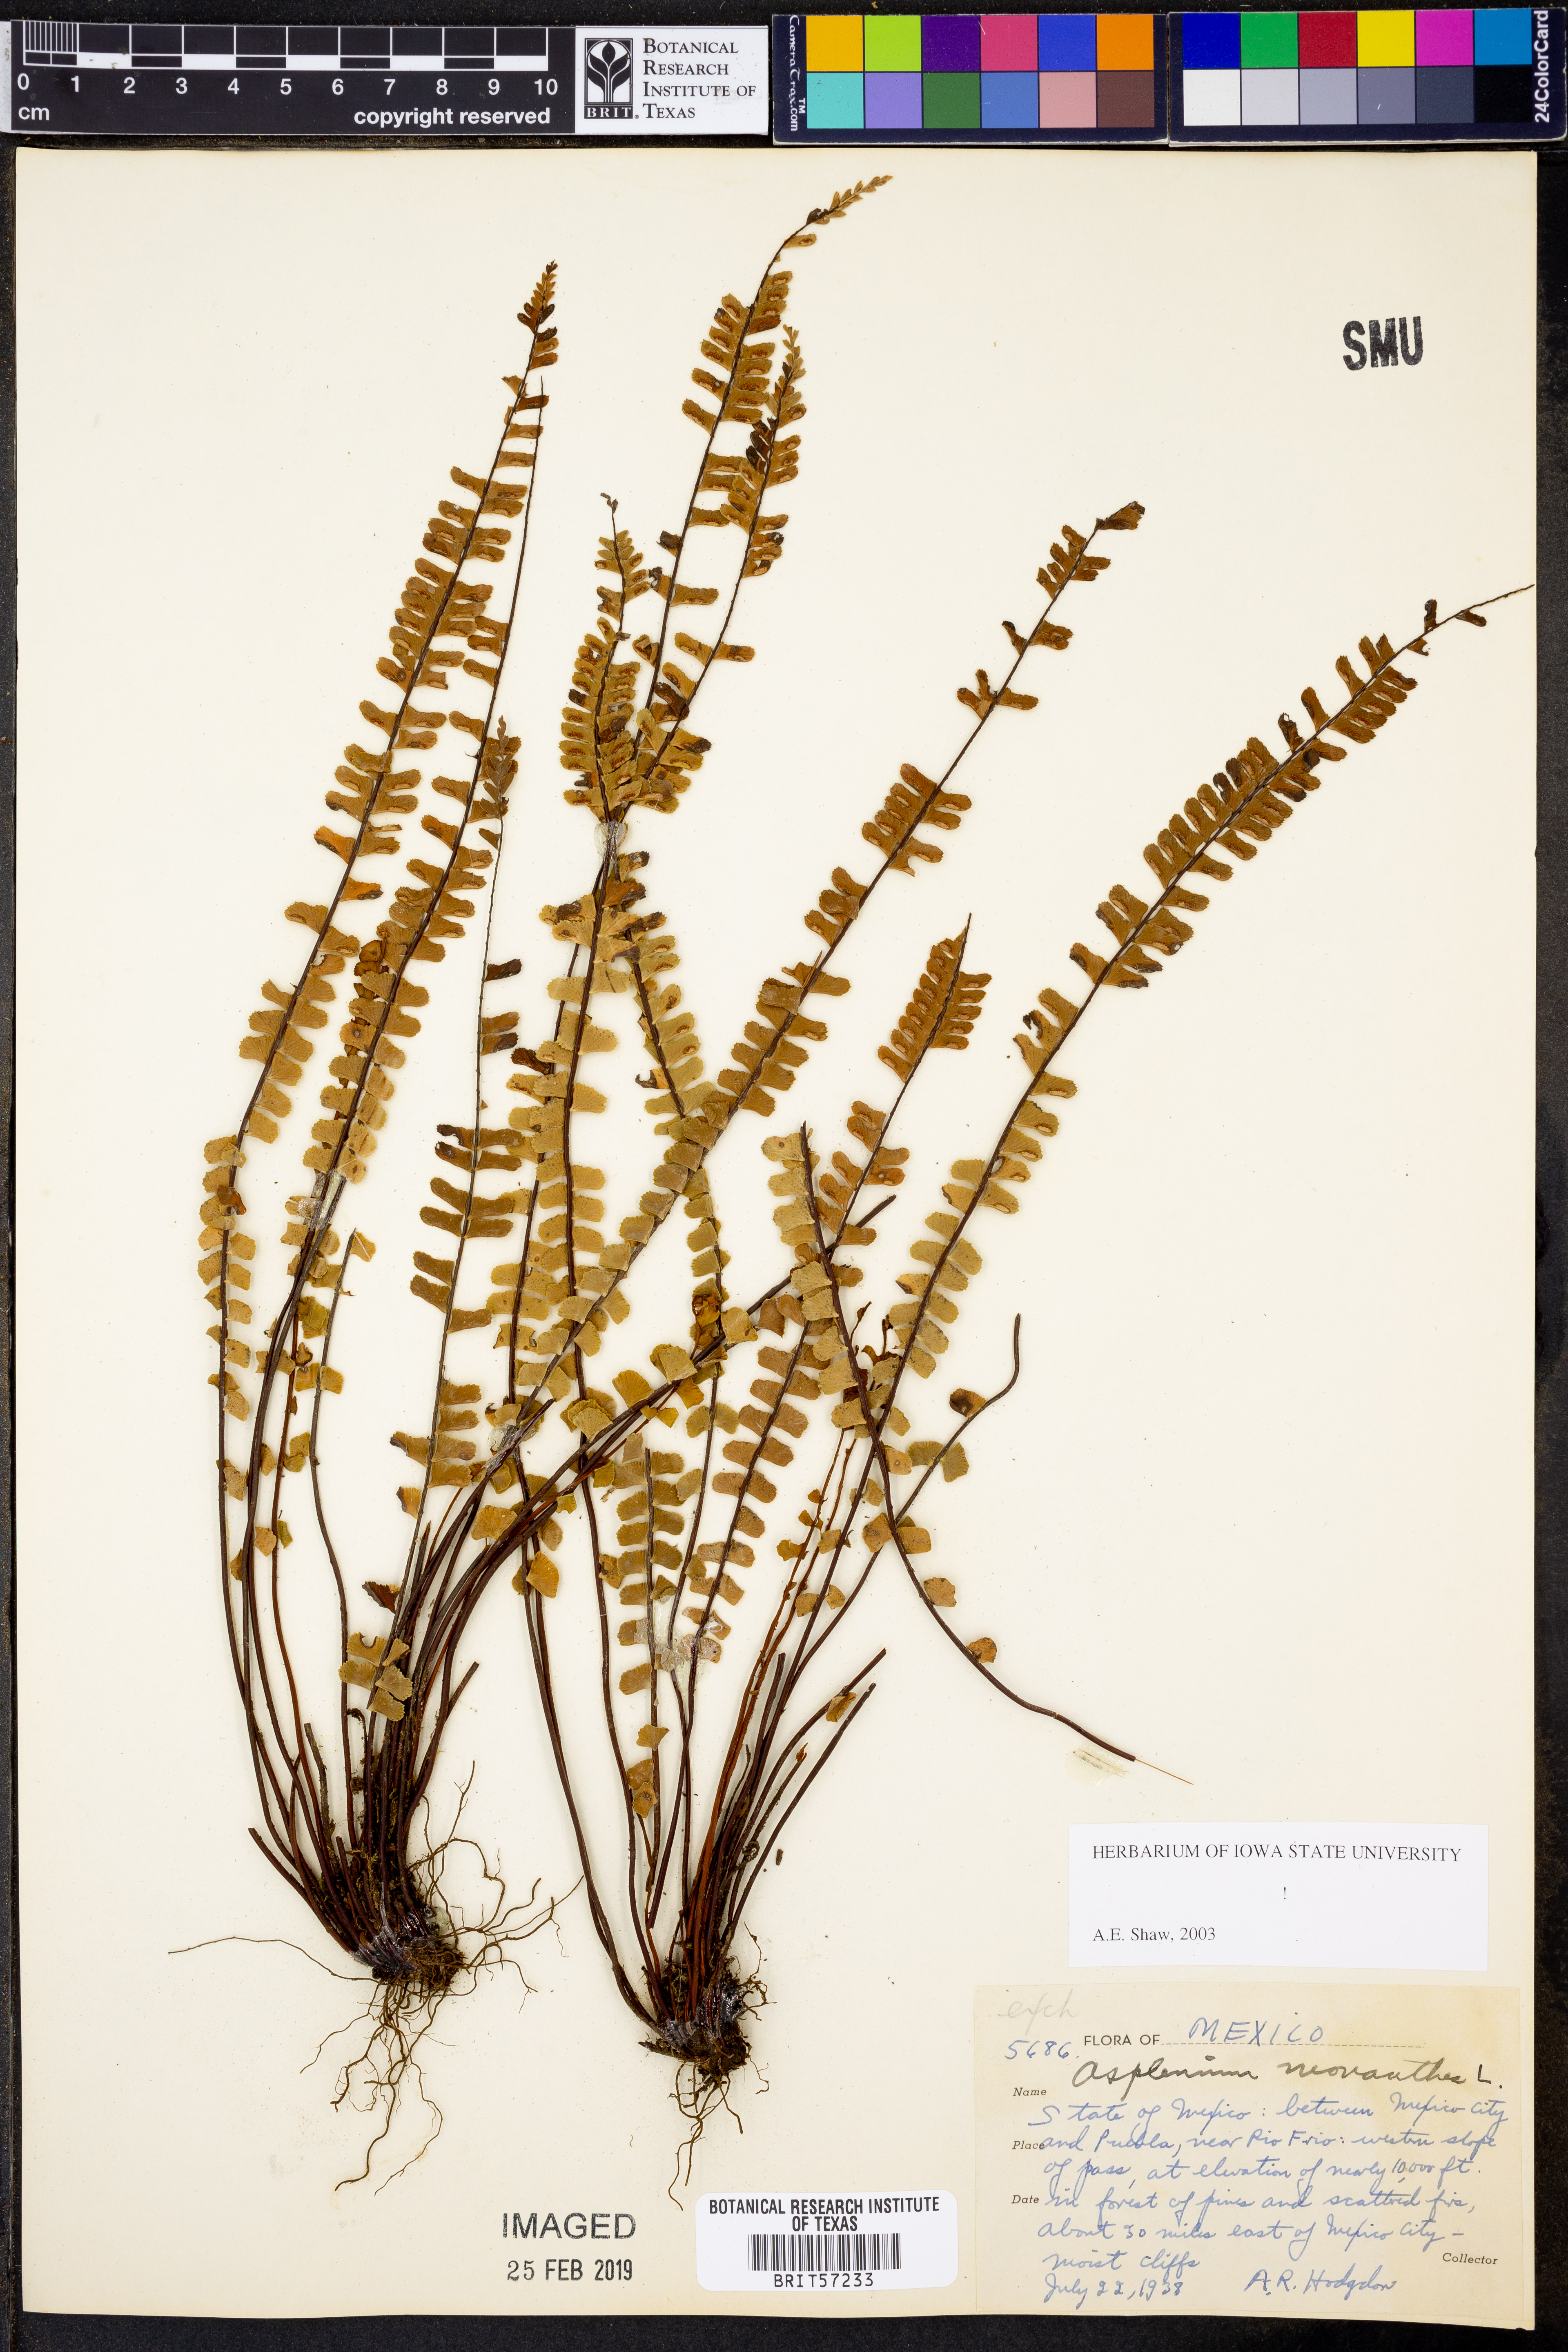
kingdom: Plantae
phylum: Tracheophyta
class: Polypodiopsida
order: Polypodiales
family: Aspleniaceae
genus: Asplenium
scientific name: Asplenium monanthes
